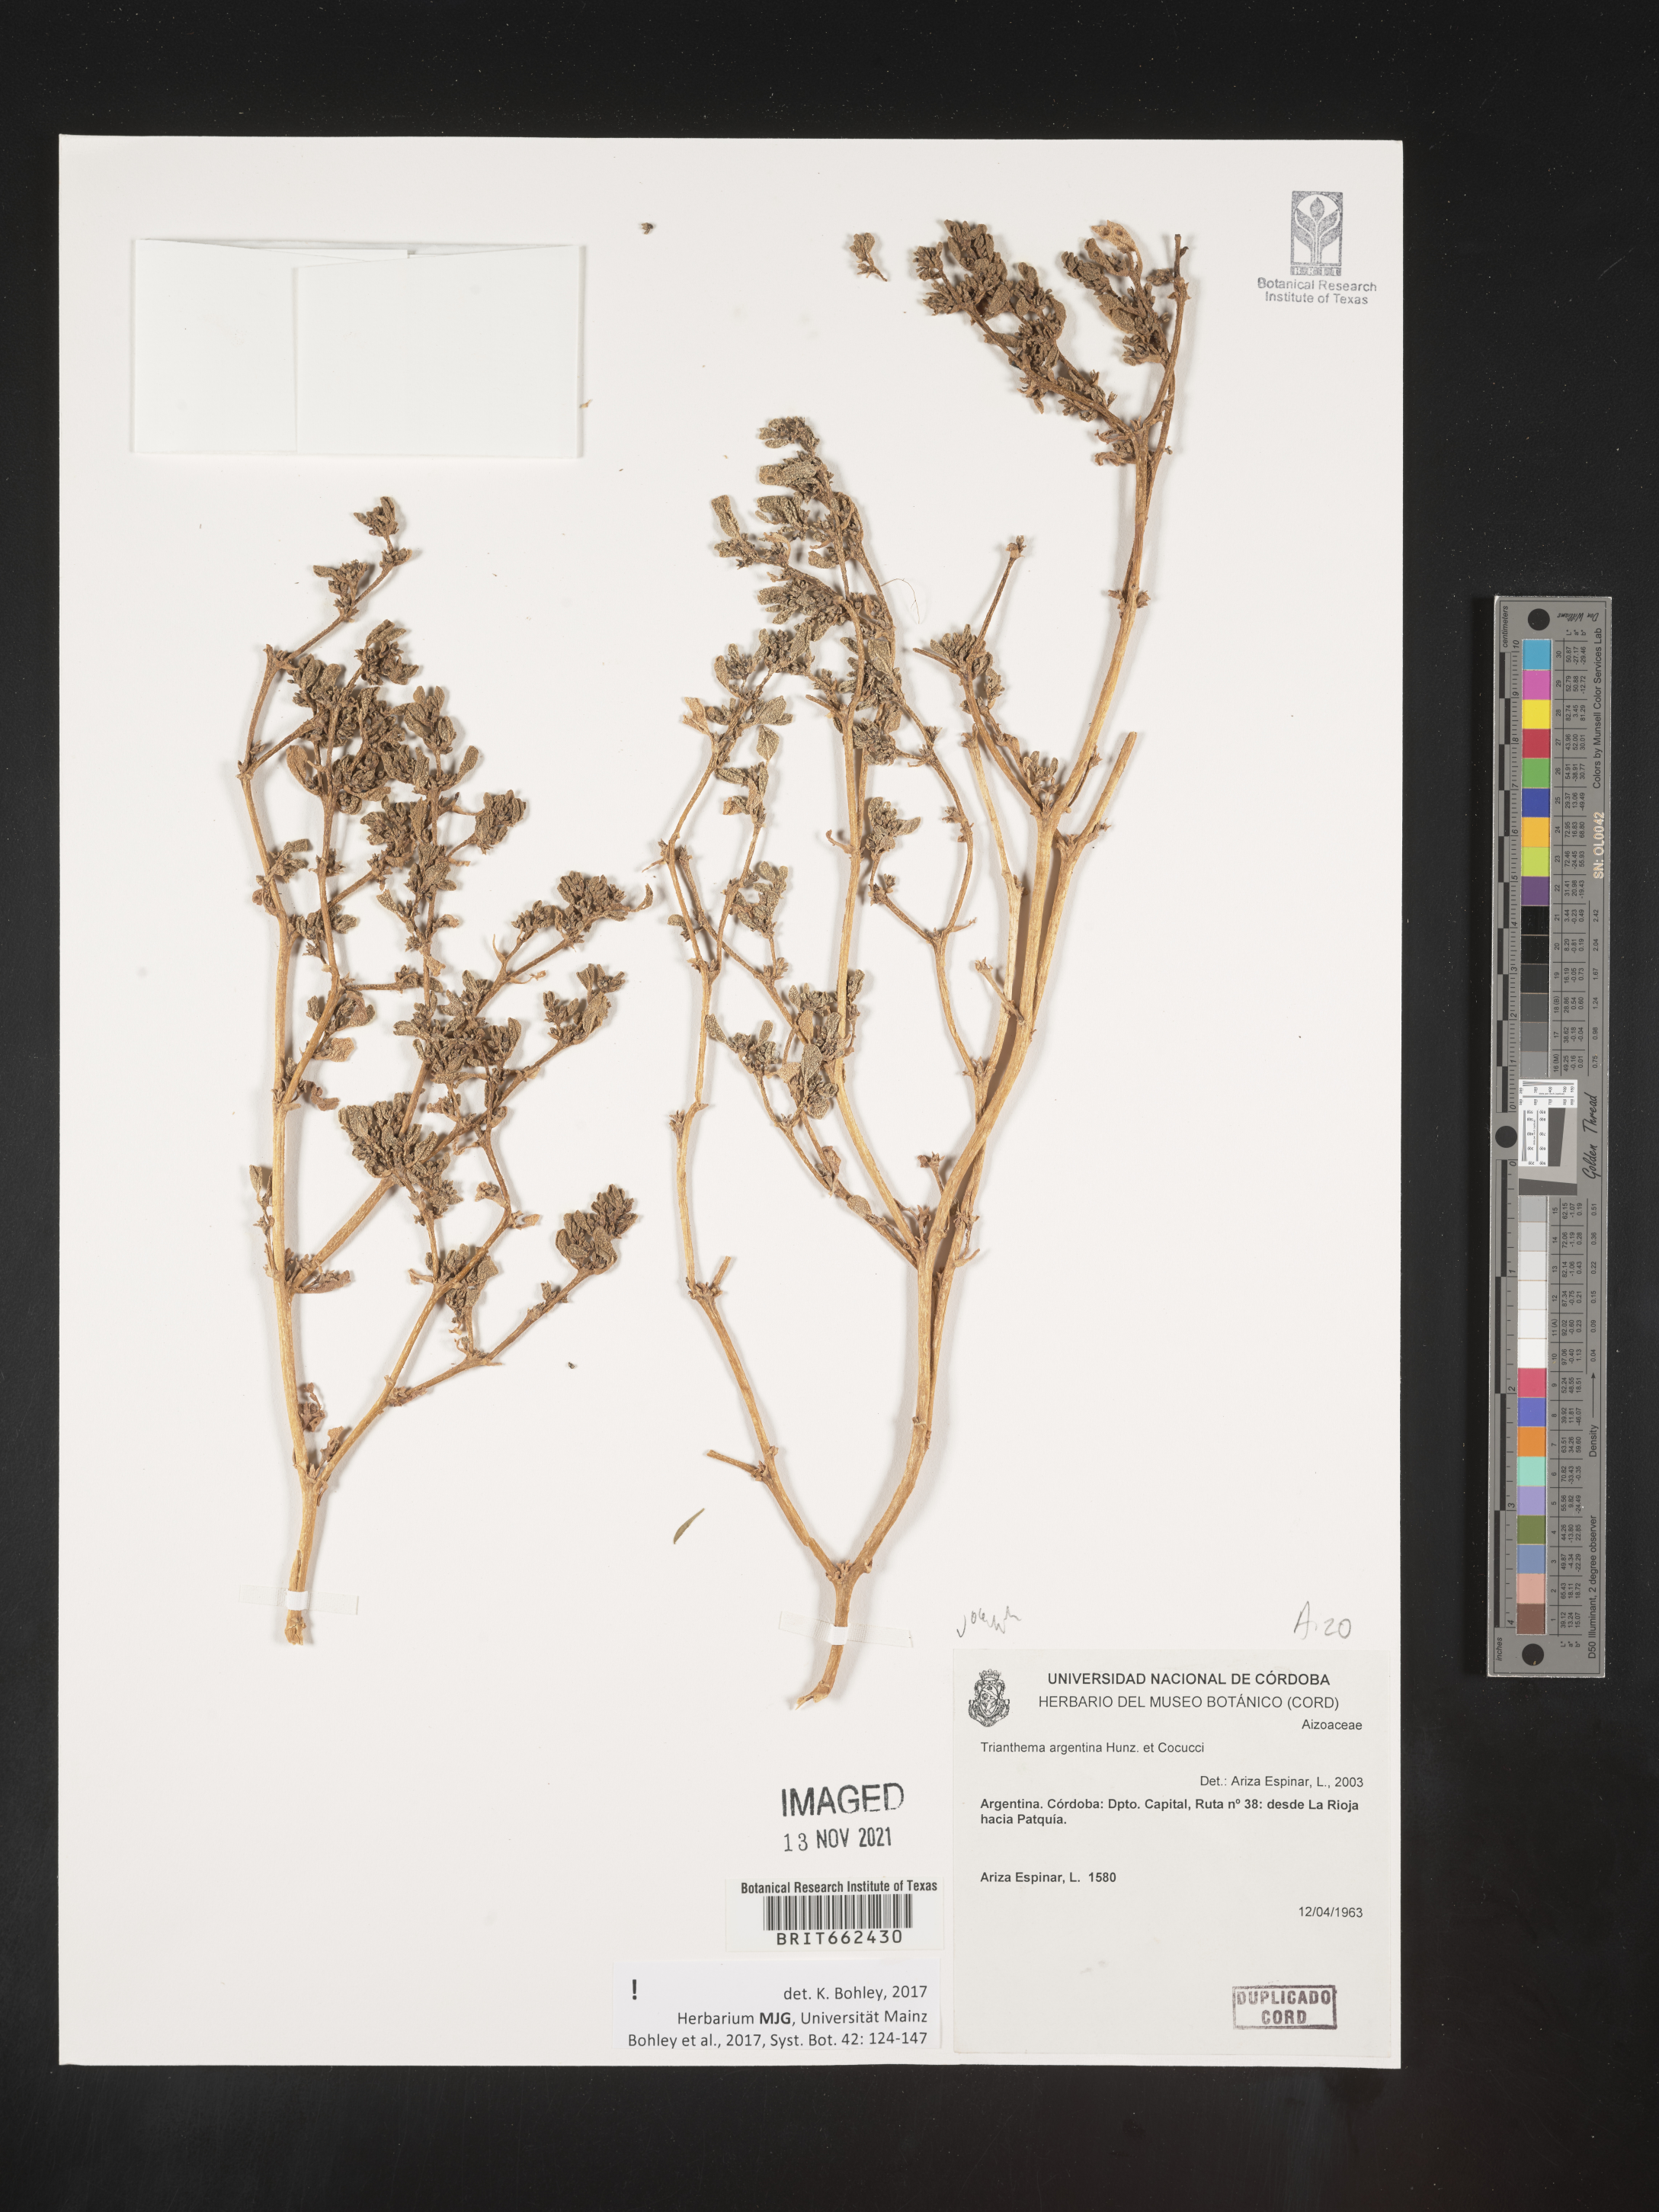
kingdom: Plantae
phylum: Tracheophyta
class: Magnoliopsida
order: Caryophyllales
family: Aizoaceae
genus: Trianthema
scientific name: Trianthema
